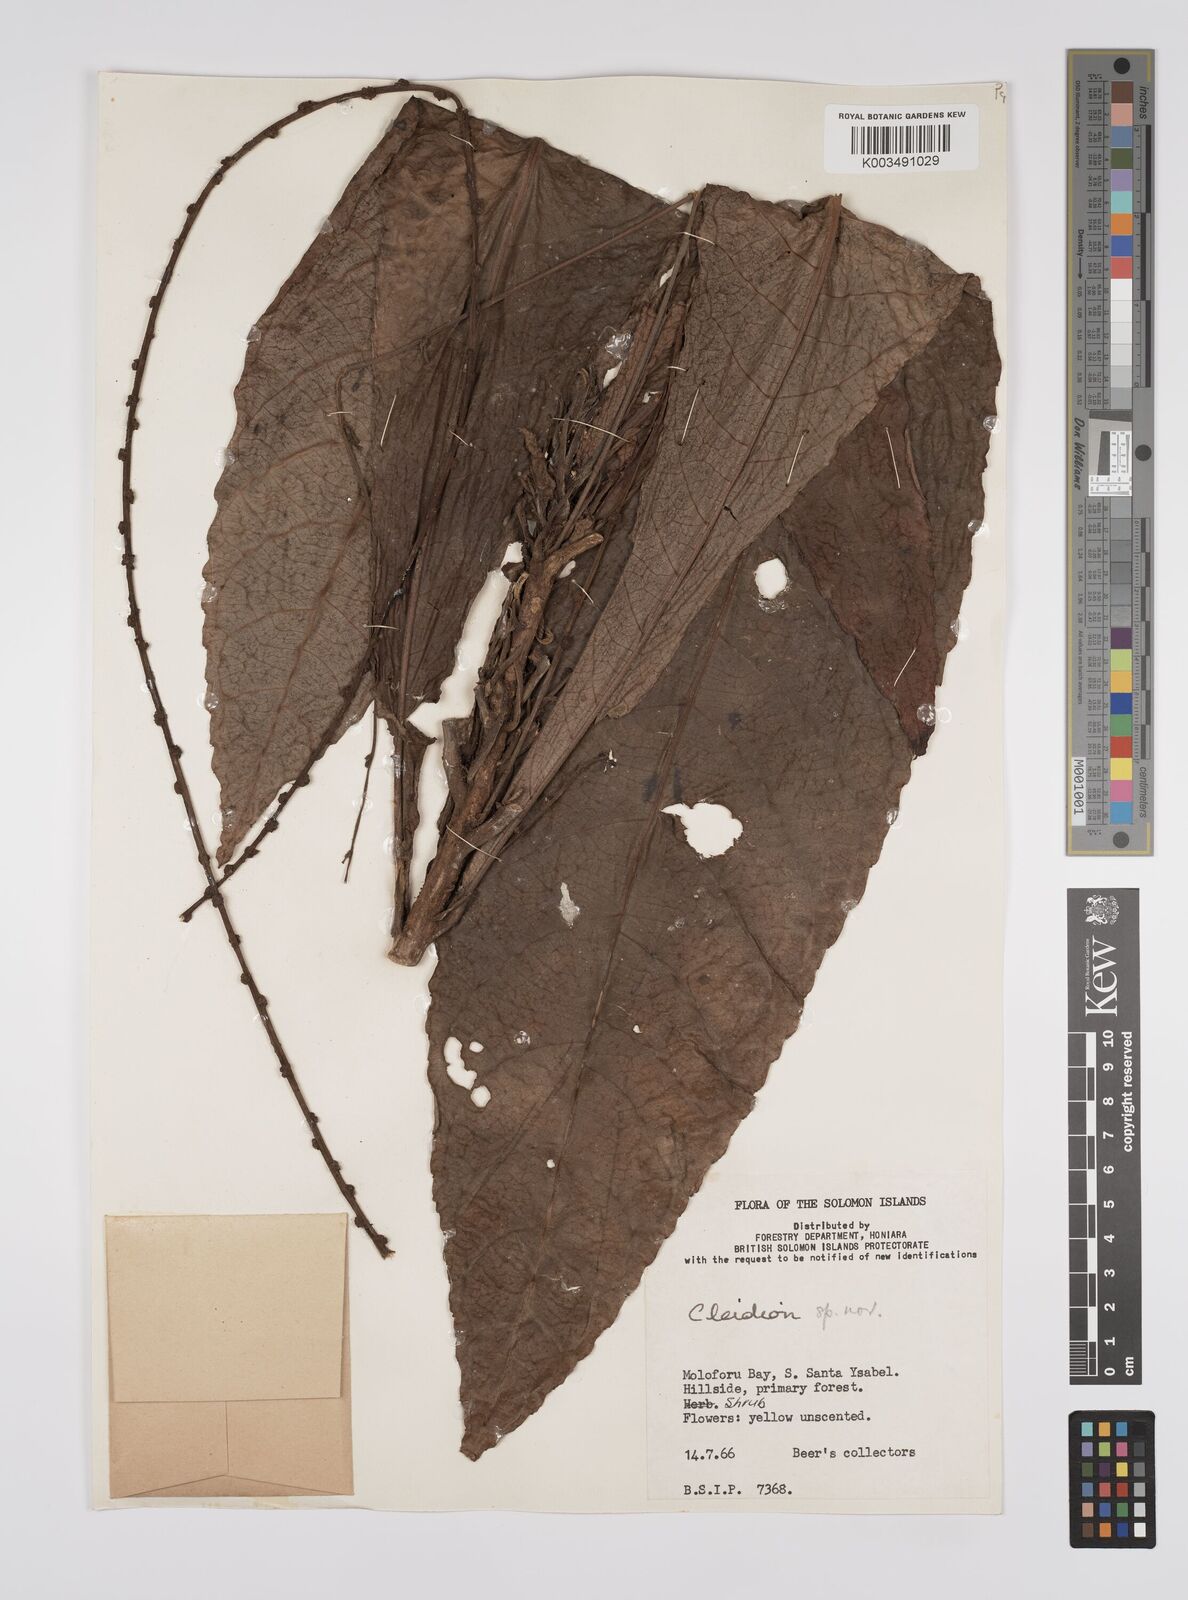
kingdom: Plantae
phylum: Tracheophyta
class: Magnoliopsida
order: Malpighiales
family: Euphorbiaceae
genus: Cleidion
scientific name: Cleidion papuanum
